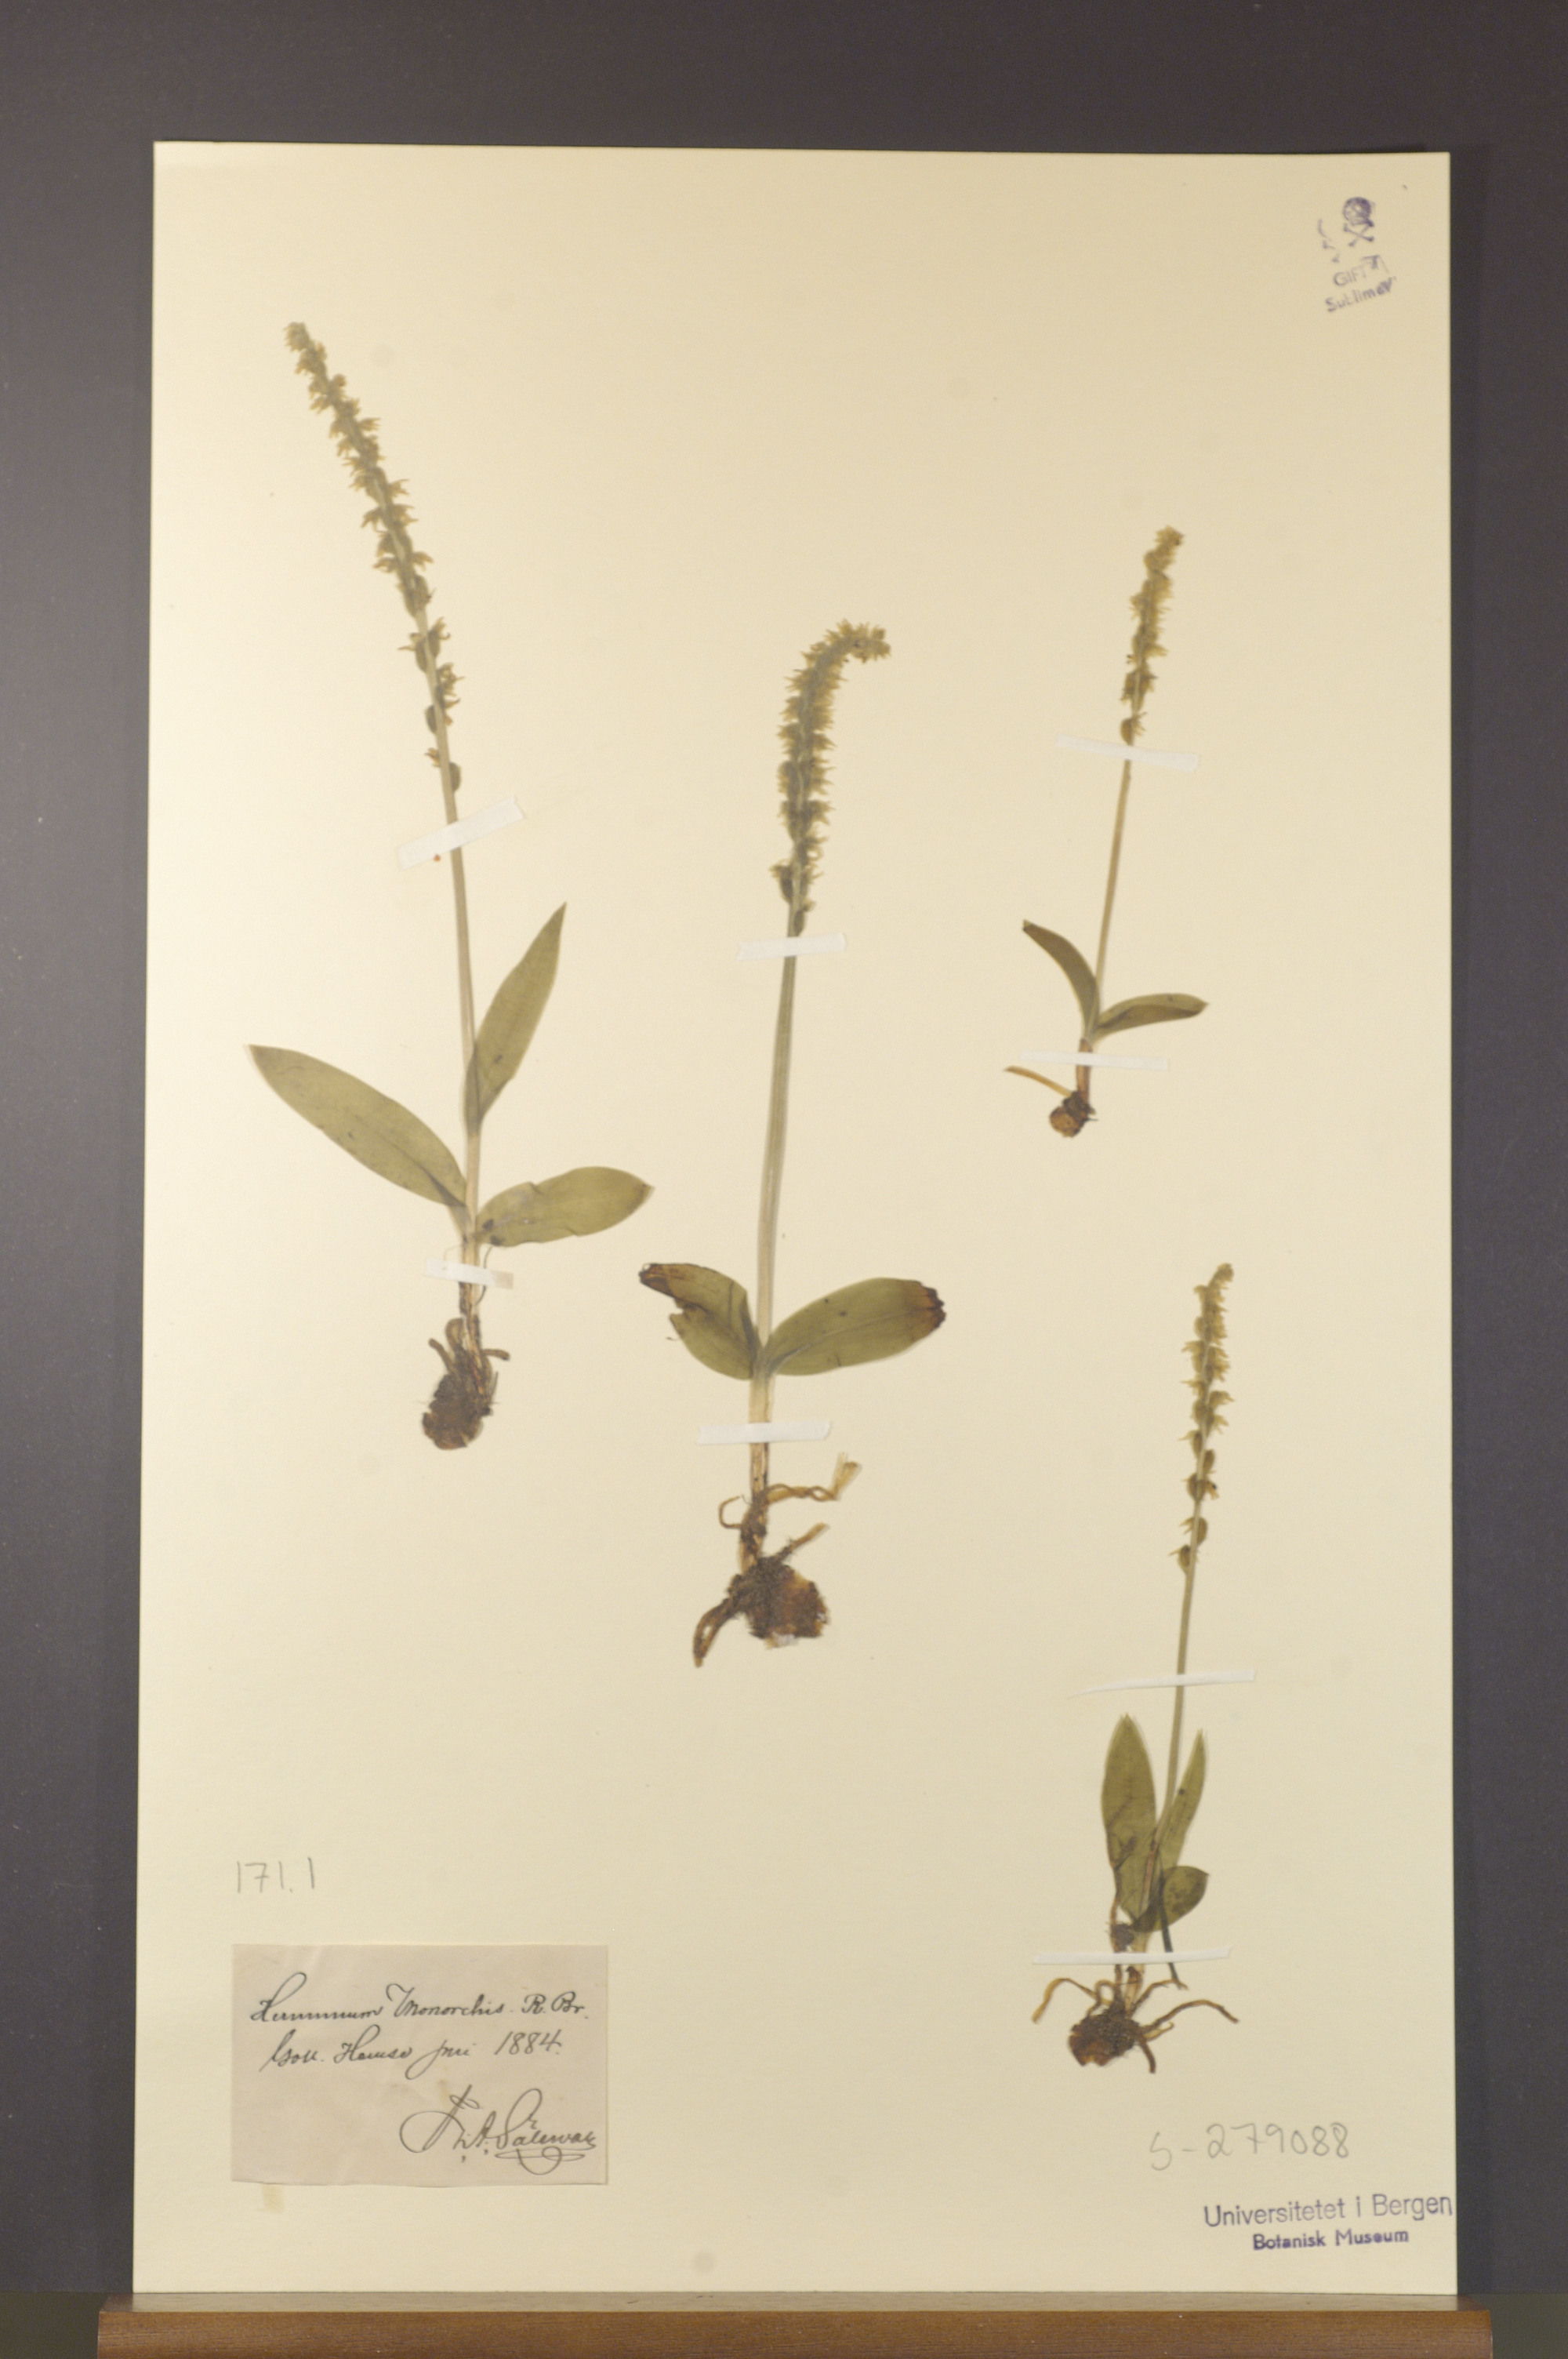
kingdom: Plantae
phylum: Tracheophyta
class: Liliopsida
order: Asparagales
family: Orchidaceae
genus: Herminium
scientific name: Herminium monorchis
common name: Musk orchid
